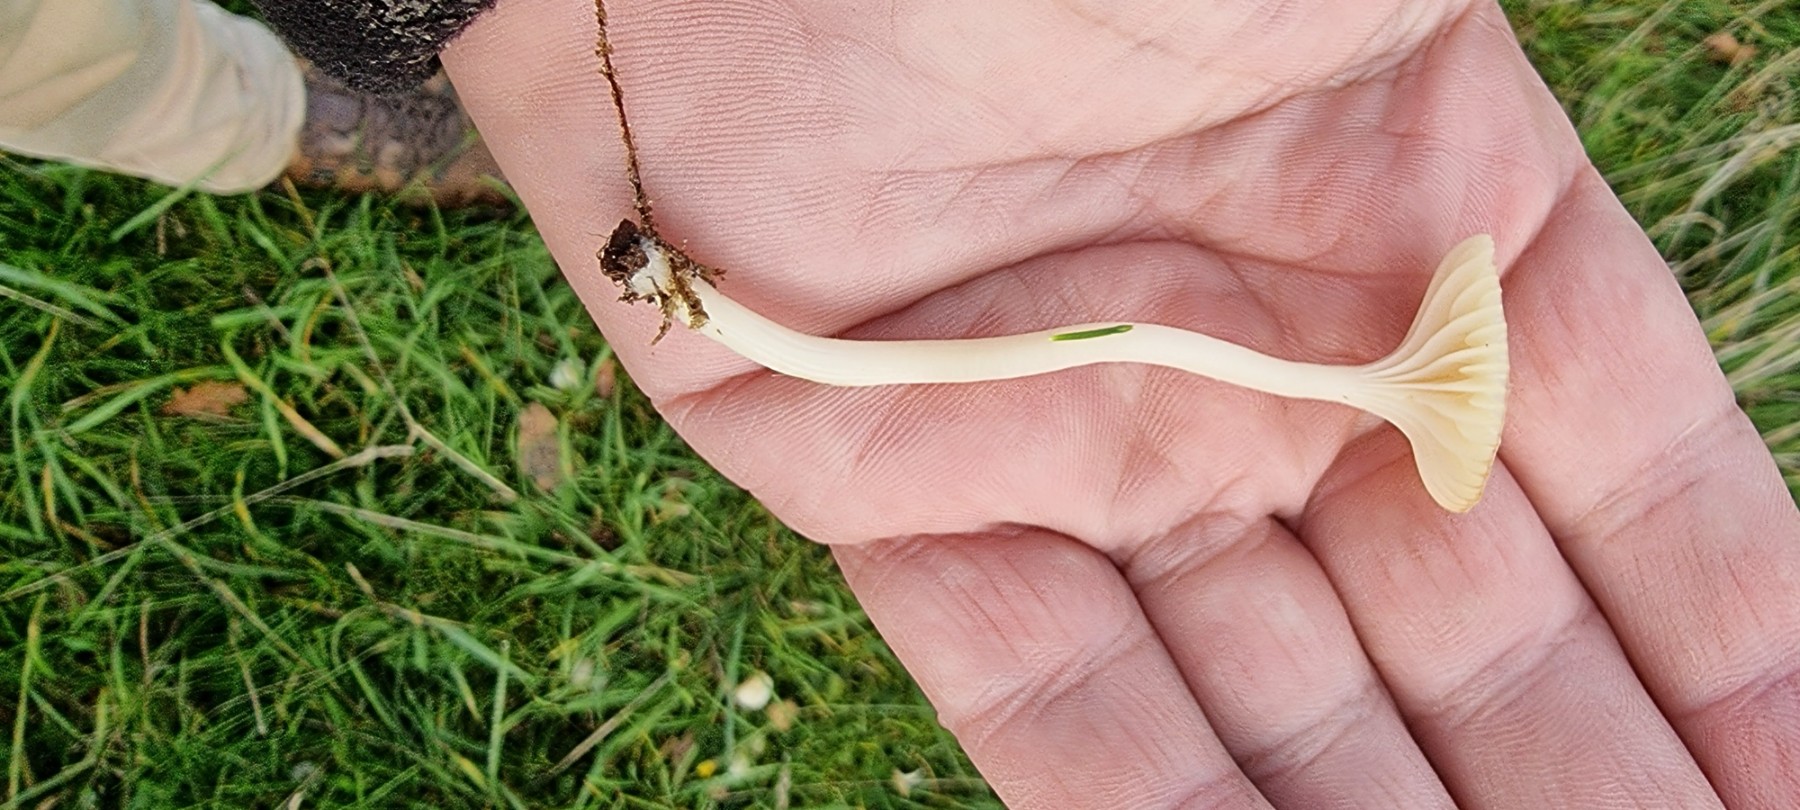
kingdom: Fungi
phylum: Basidiomycota
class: Agaricomycetes
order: Agaricales
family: Hygrophoraceae
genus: Cuphophyllus
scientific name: Cuphophyllus
